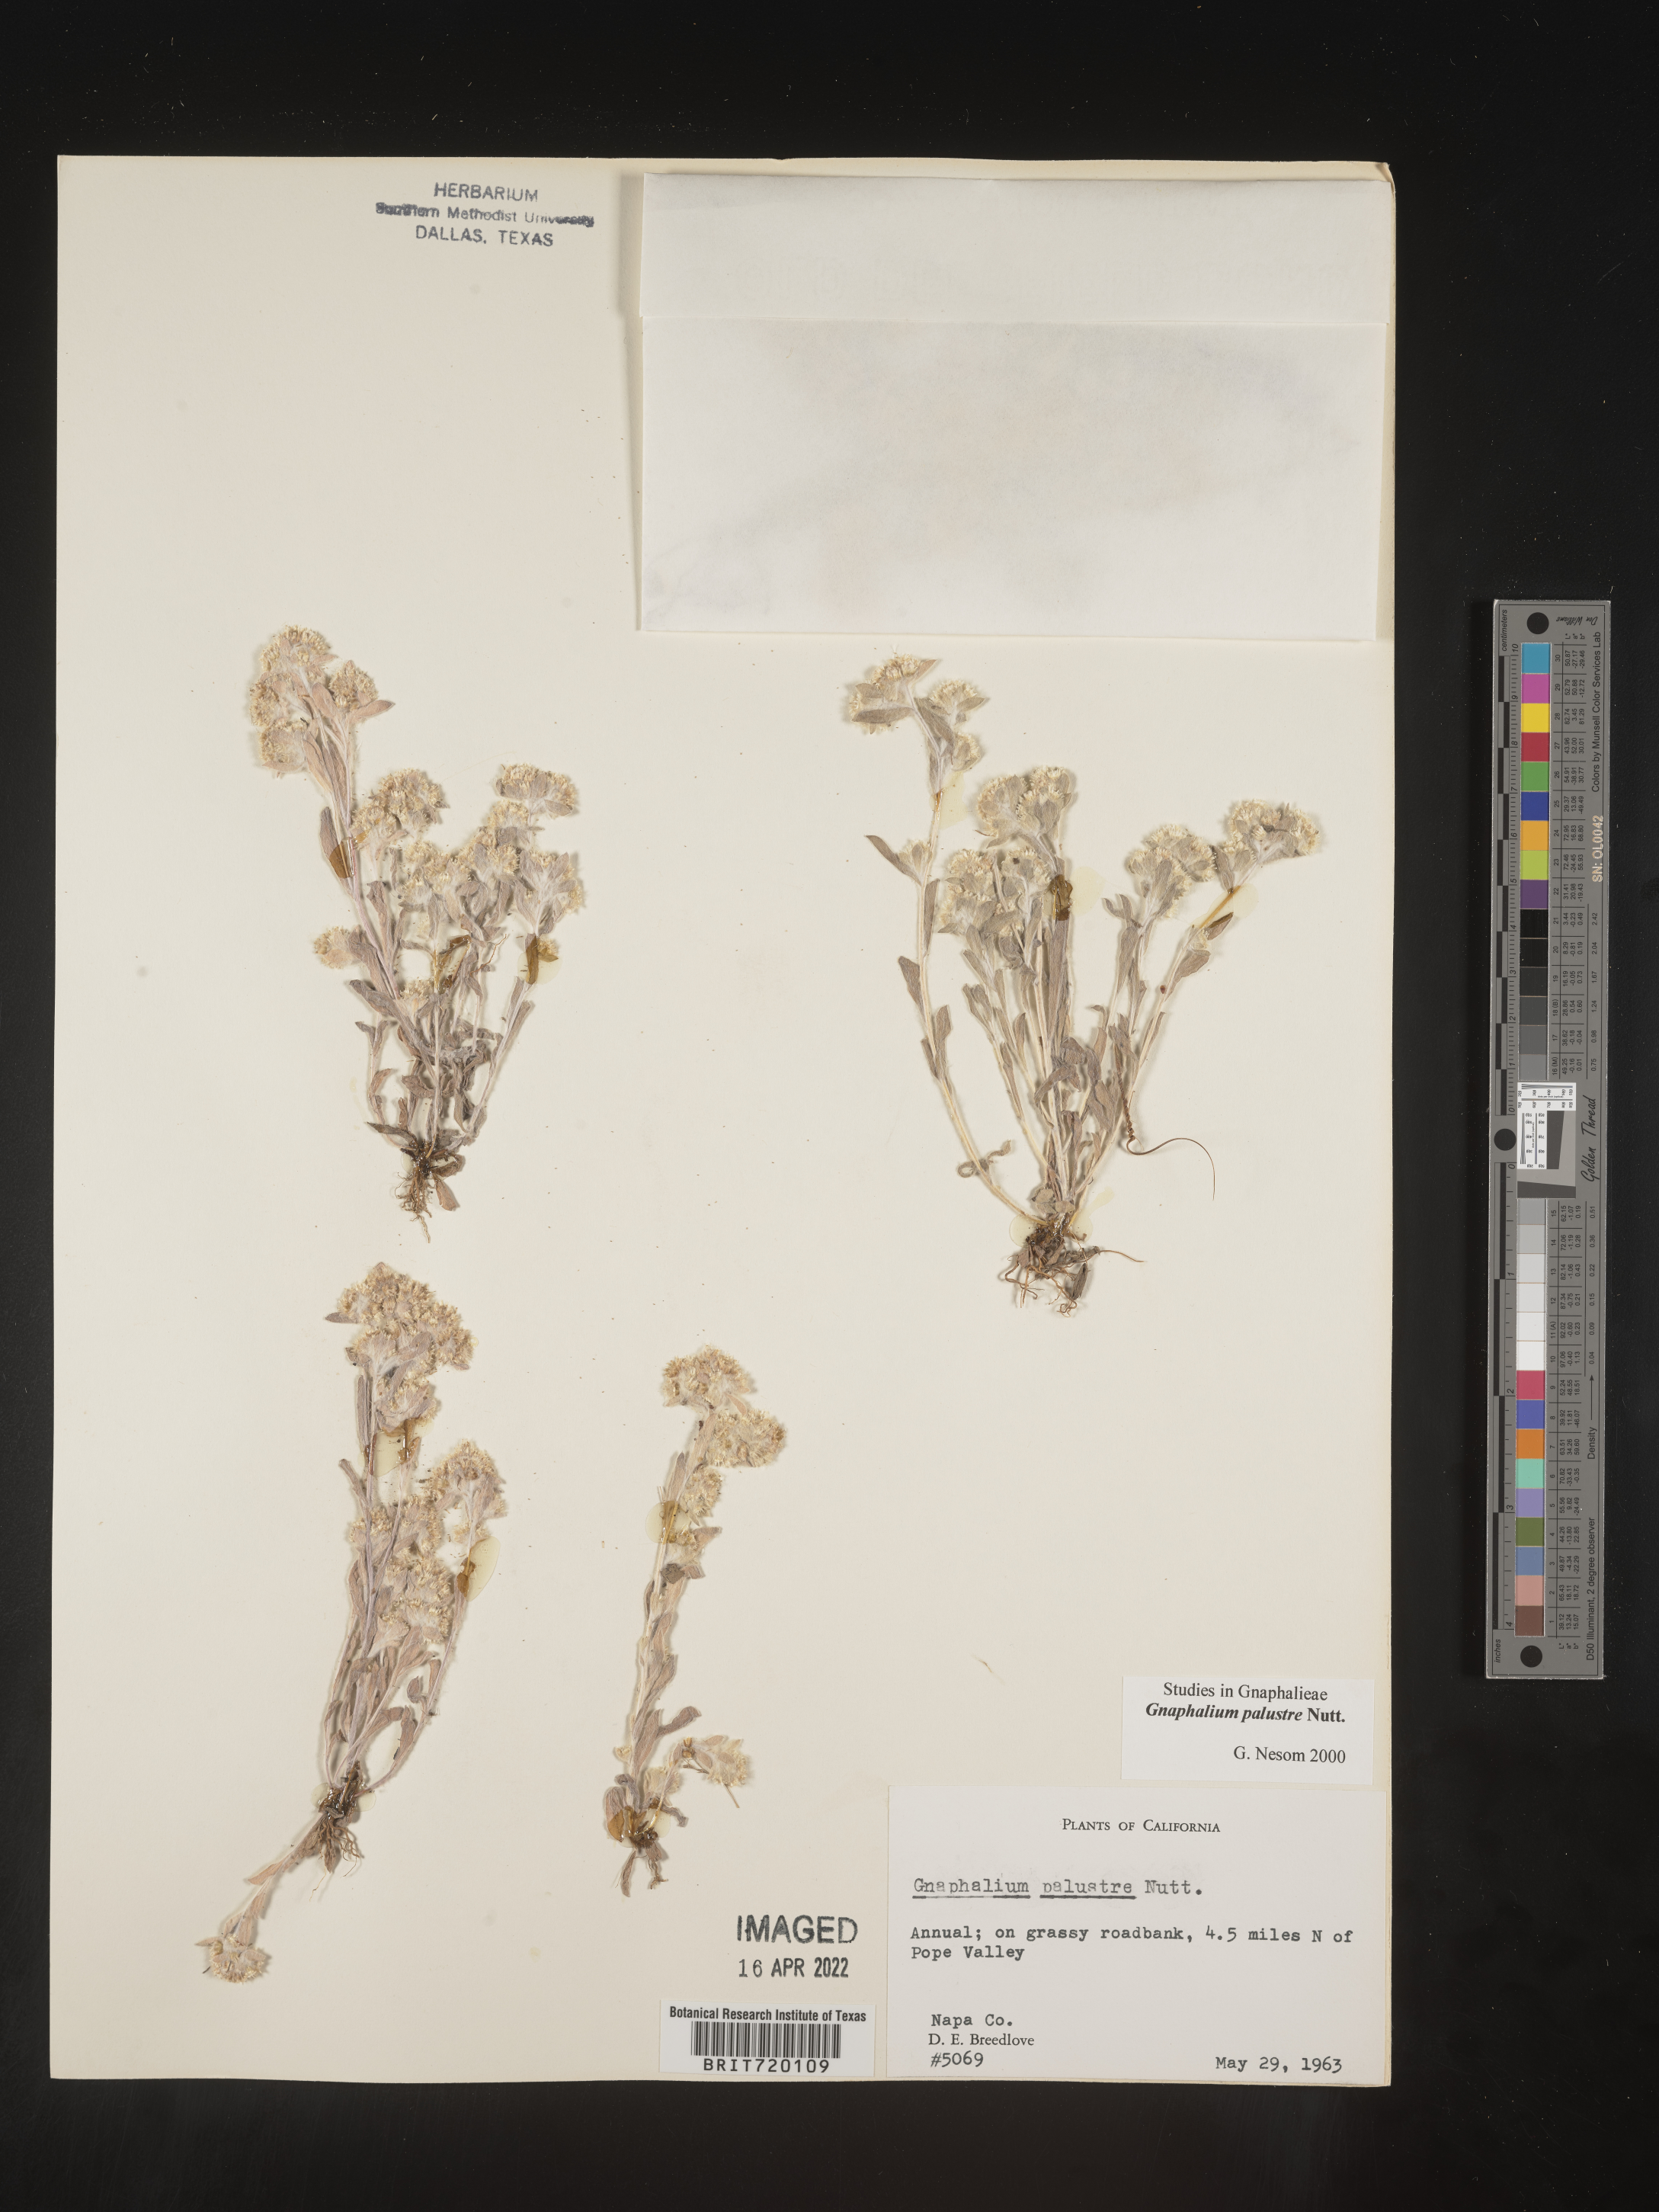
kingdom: Plantae
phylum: Tracheophyta
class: Magnoliopsida
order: Asterales
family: Asteraceae
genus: Gnaphalium
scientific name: Gnaphalium palustre
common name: Western marsh cudweed
